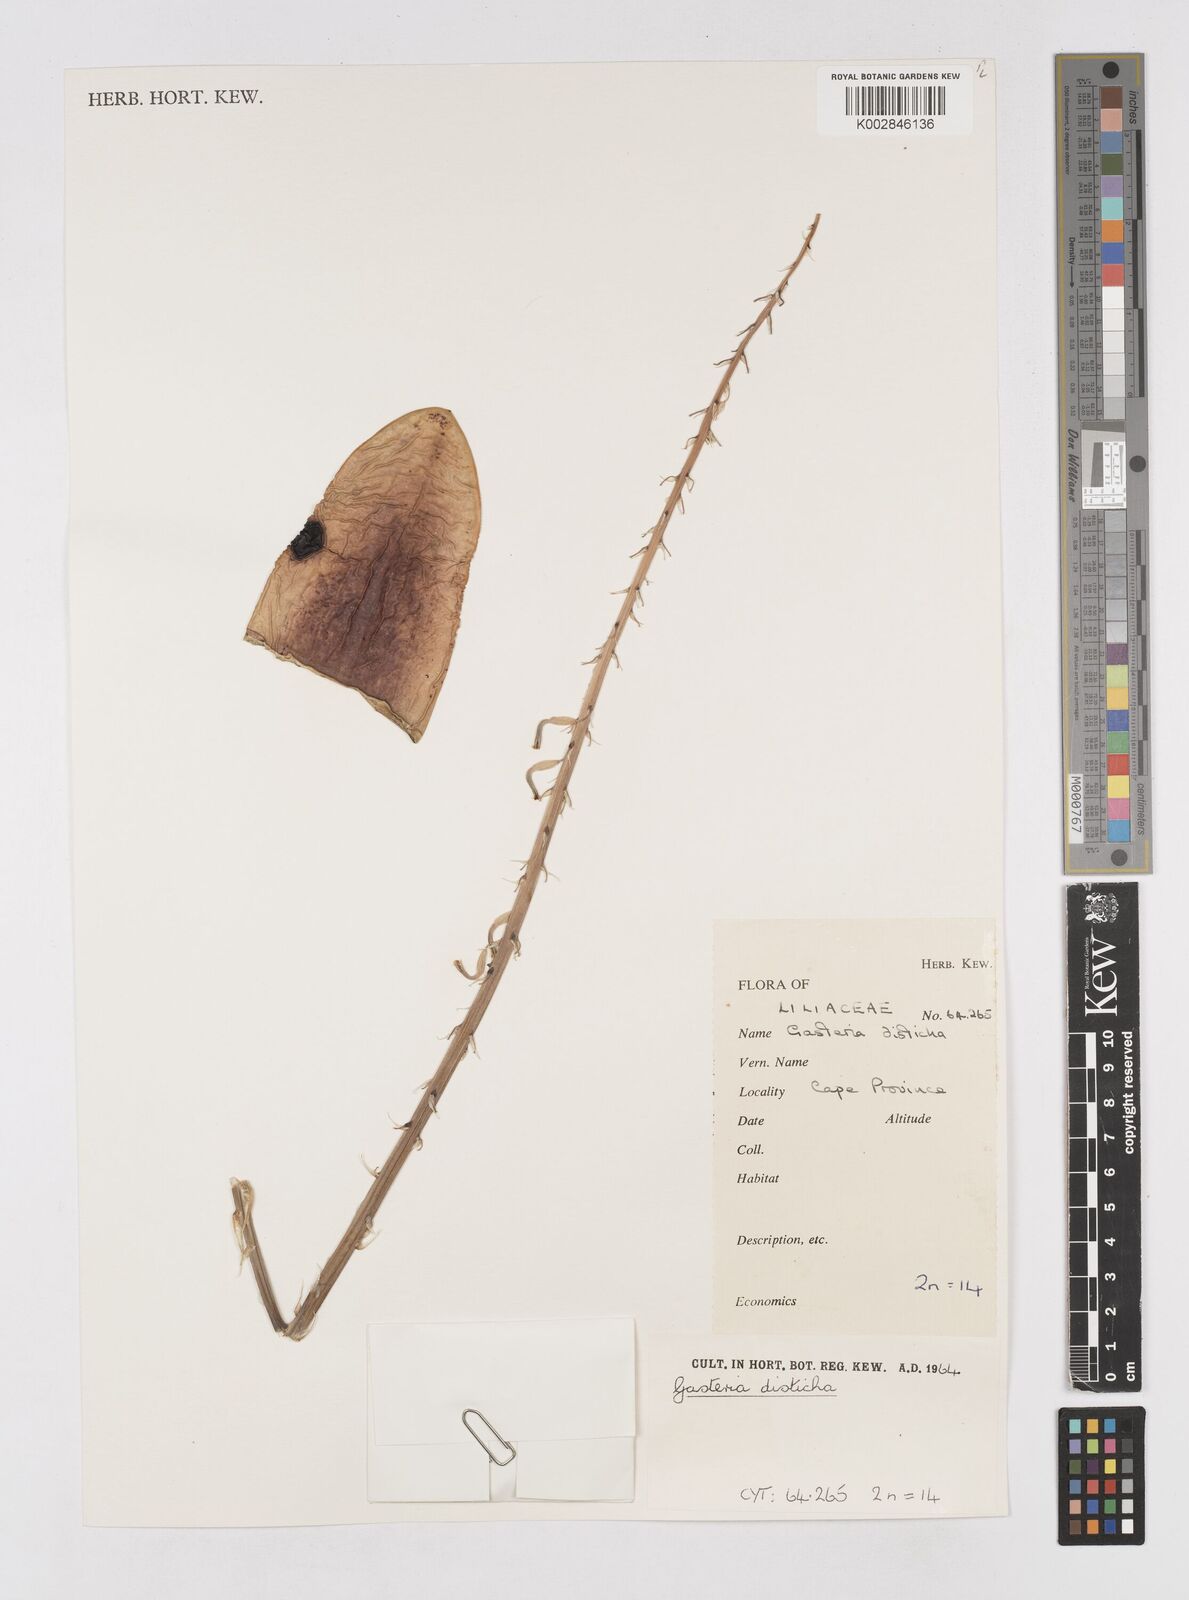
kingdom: Plantae
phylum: Tracheophyta
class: Liliopsida
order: Asparagales
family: Asphodelaceae
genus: Gasteria
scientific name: Gasteria disticha
